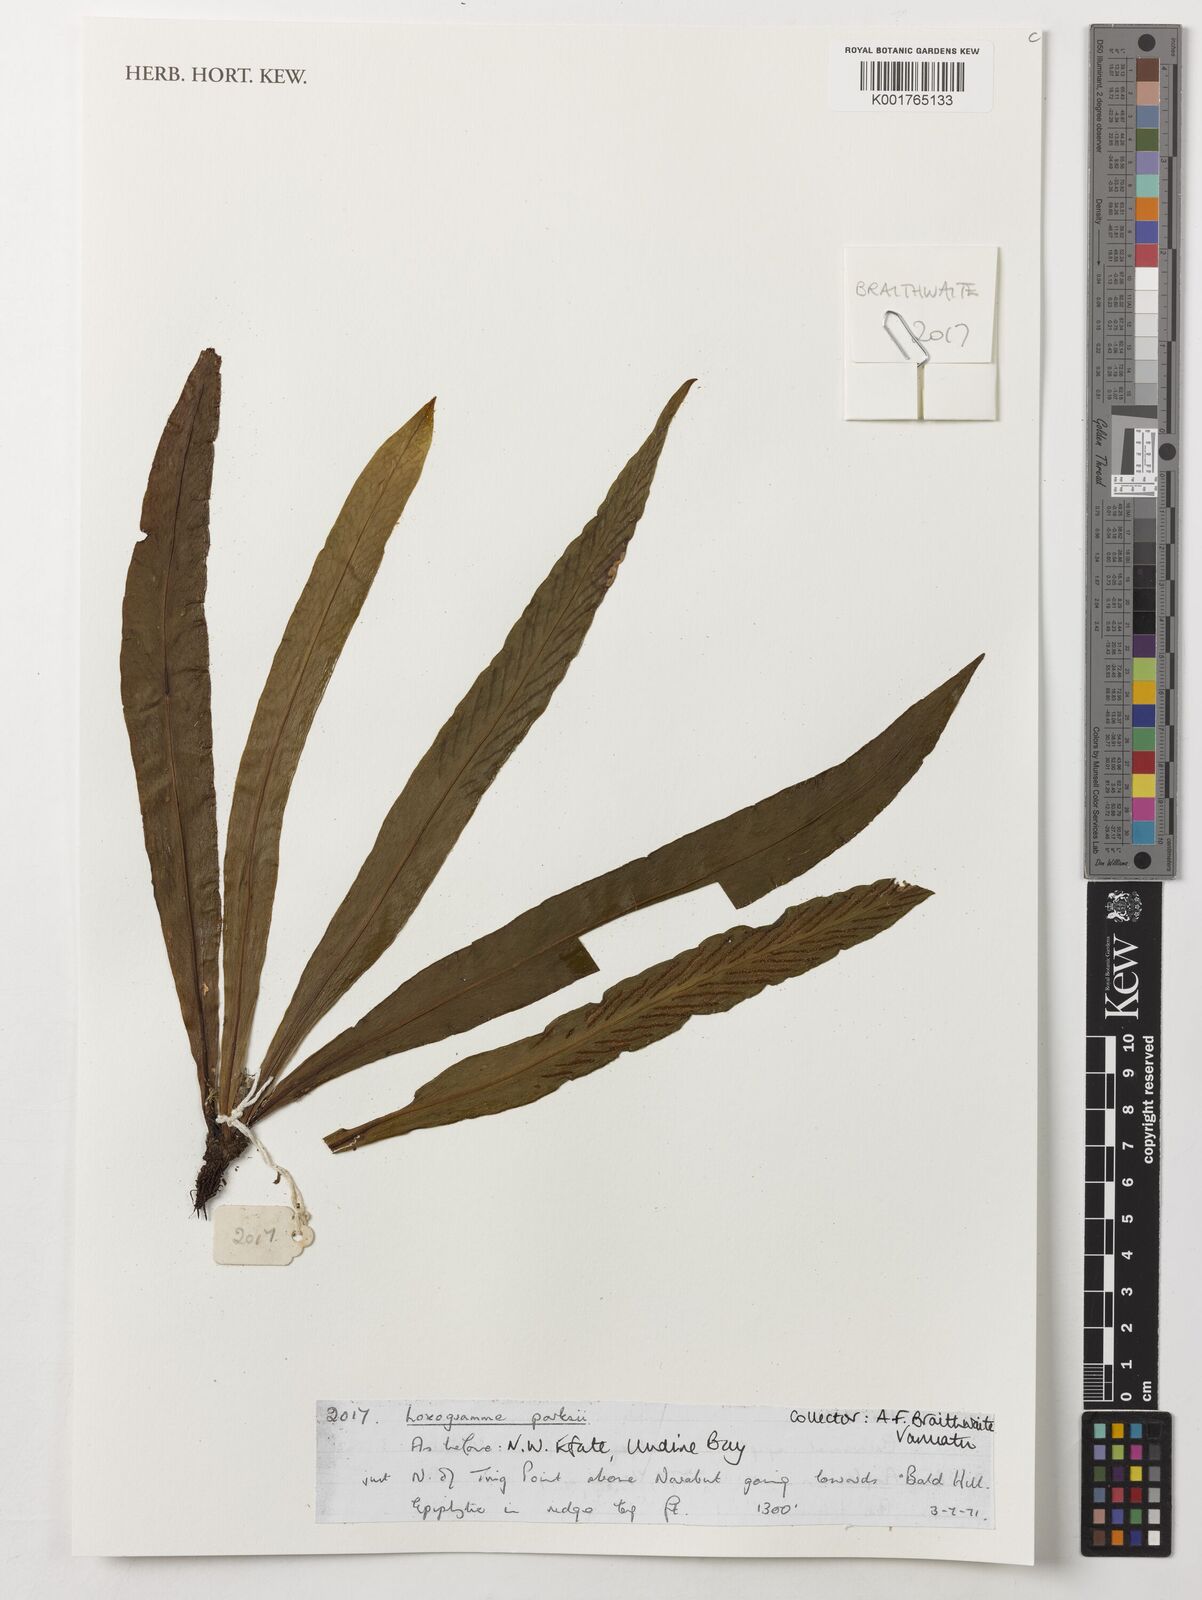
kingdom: Plantae
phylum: Tracheophyta
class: Polypodiopsida
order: Polypodiales
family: Polypodiaceae
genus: Loxogramme
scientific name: Loxogramme parksii
